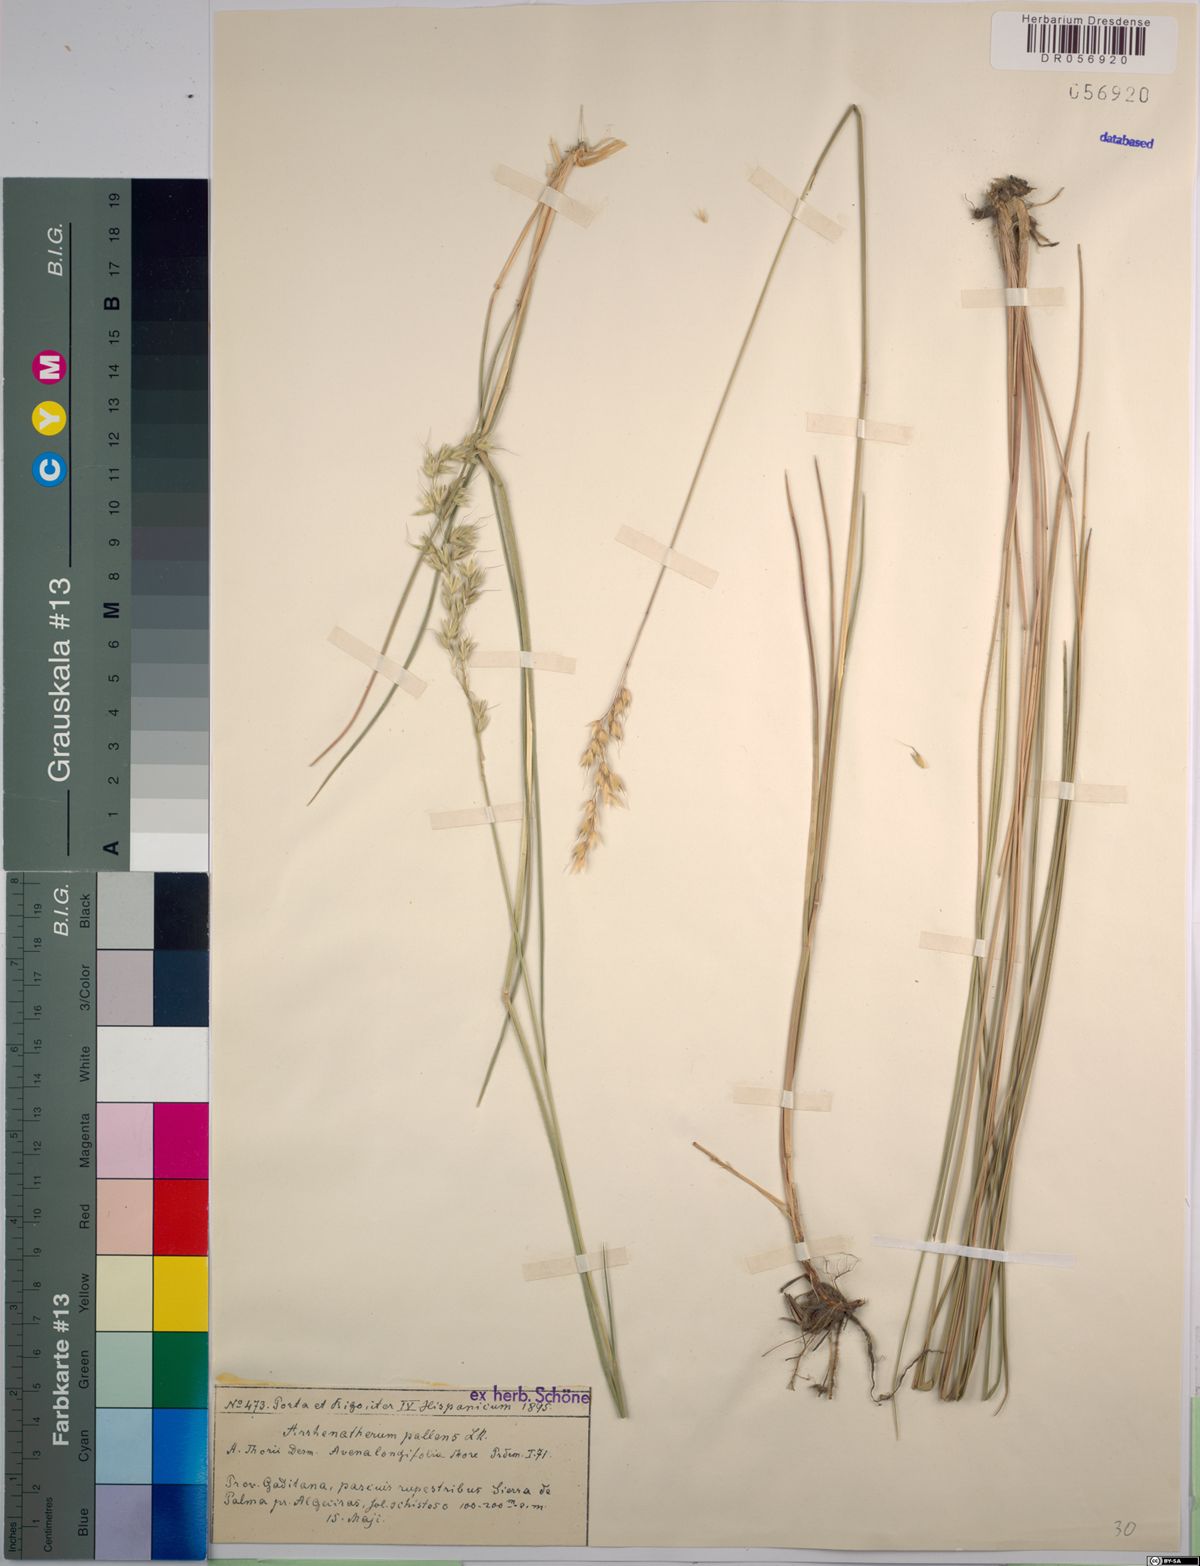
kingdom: Plantae
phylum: Tracheophyta
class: Liliopsida
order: Poales
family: Poaceae
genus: Arrhenatherum
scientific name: Arrhenatherum pallens
